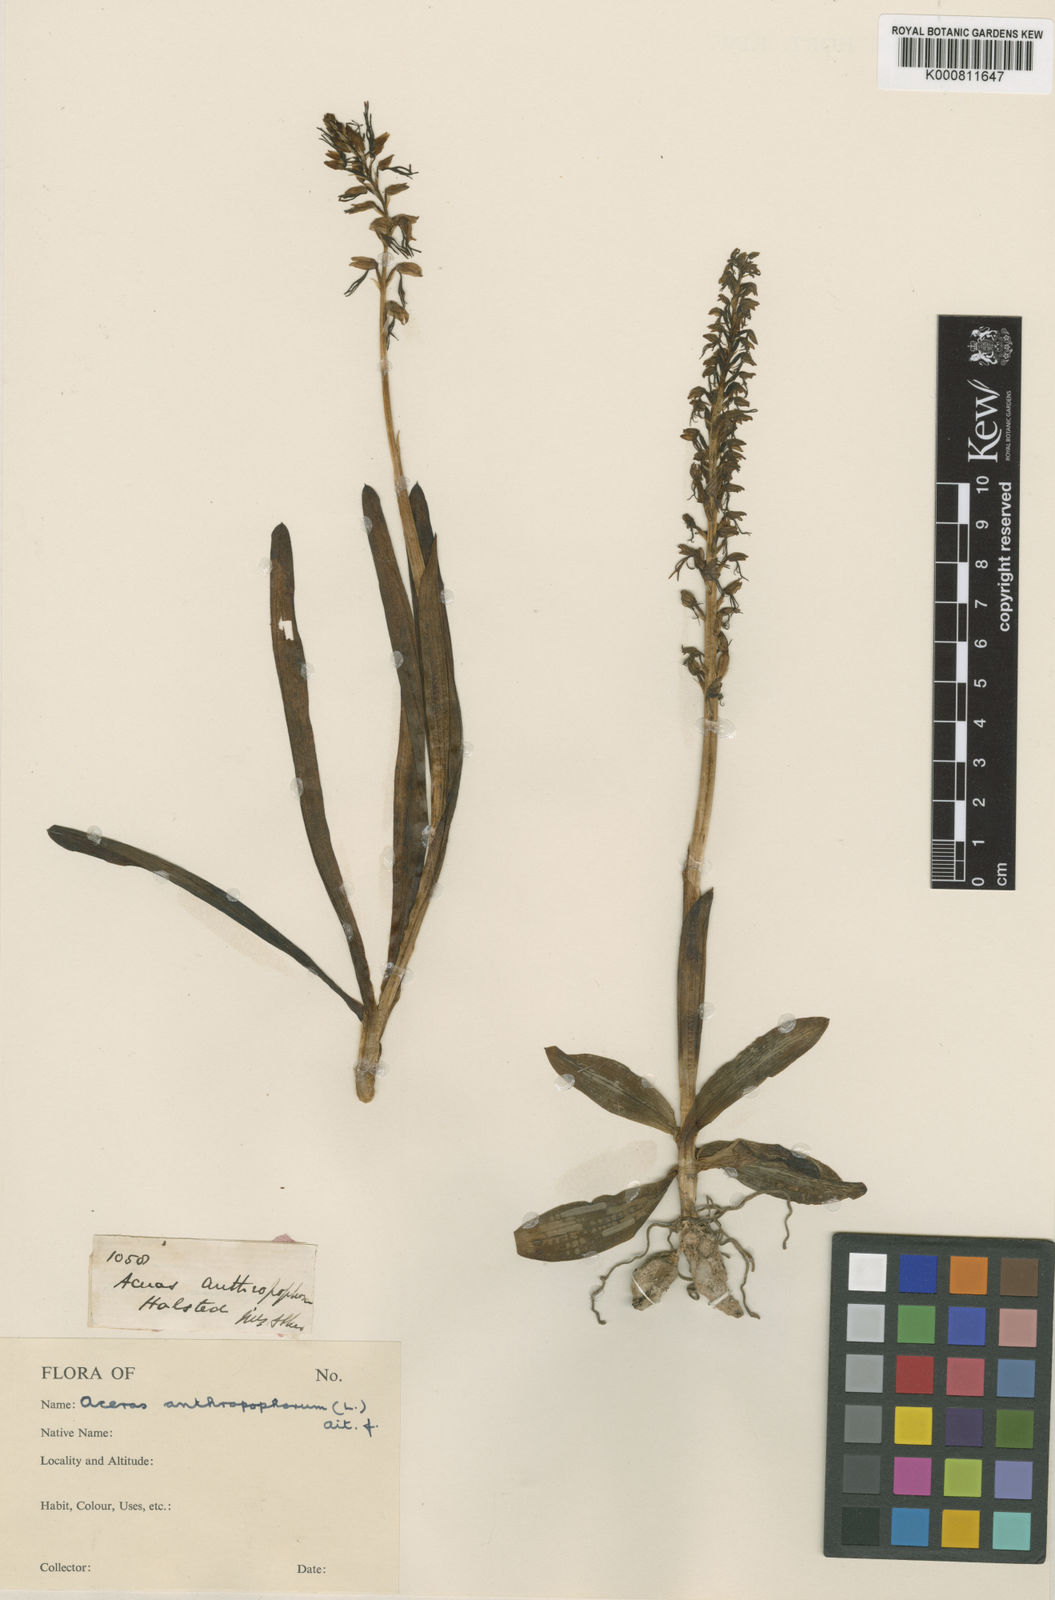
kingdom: Plantae
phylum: Tracheophyta
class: Liliopsida
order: Asparagales
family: Orchidaceae
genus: Orchis
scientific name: Orchis
